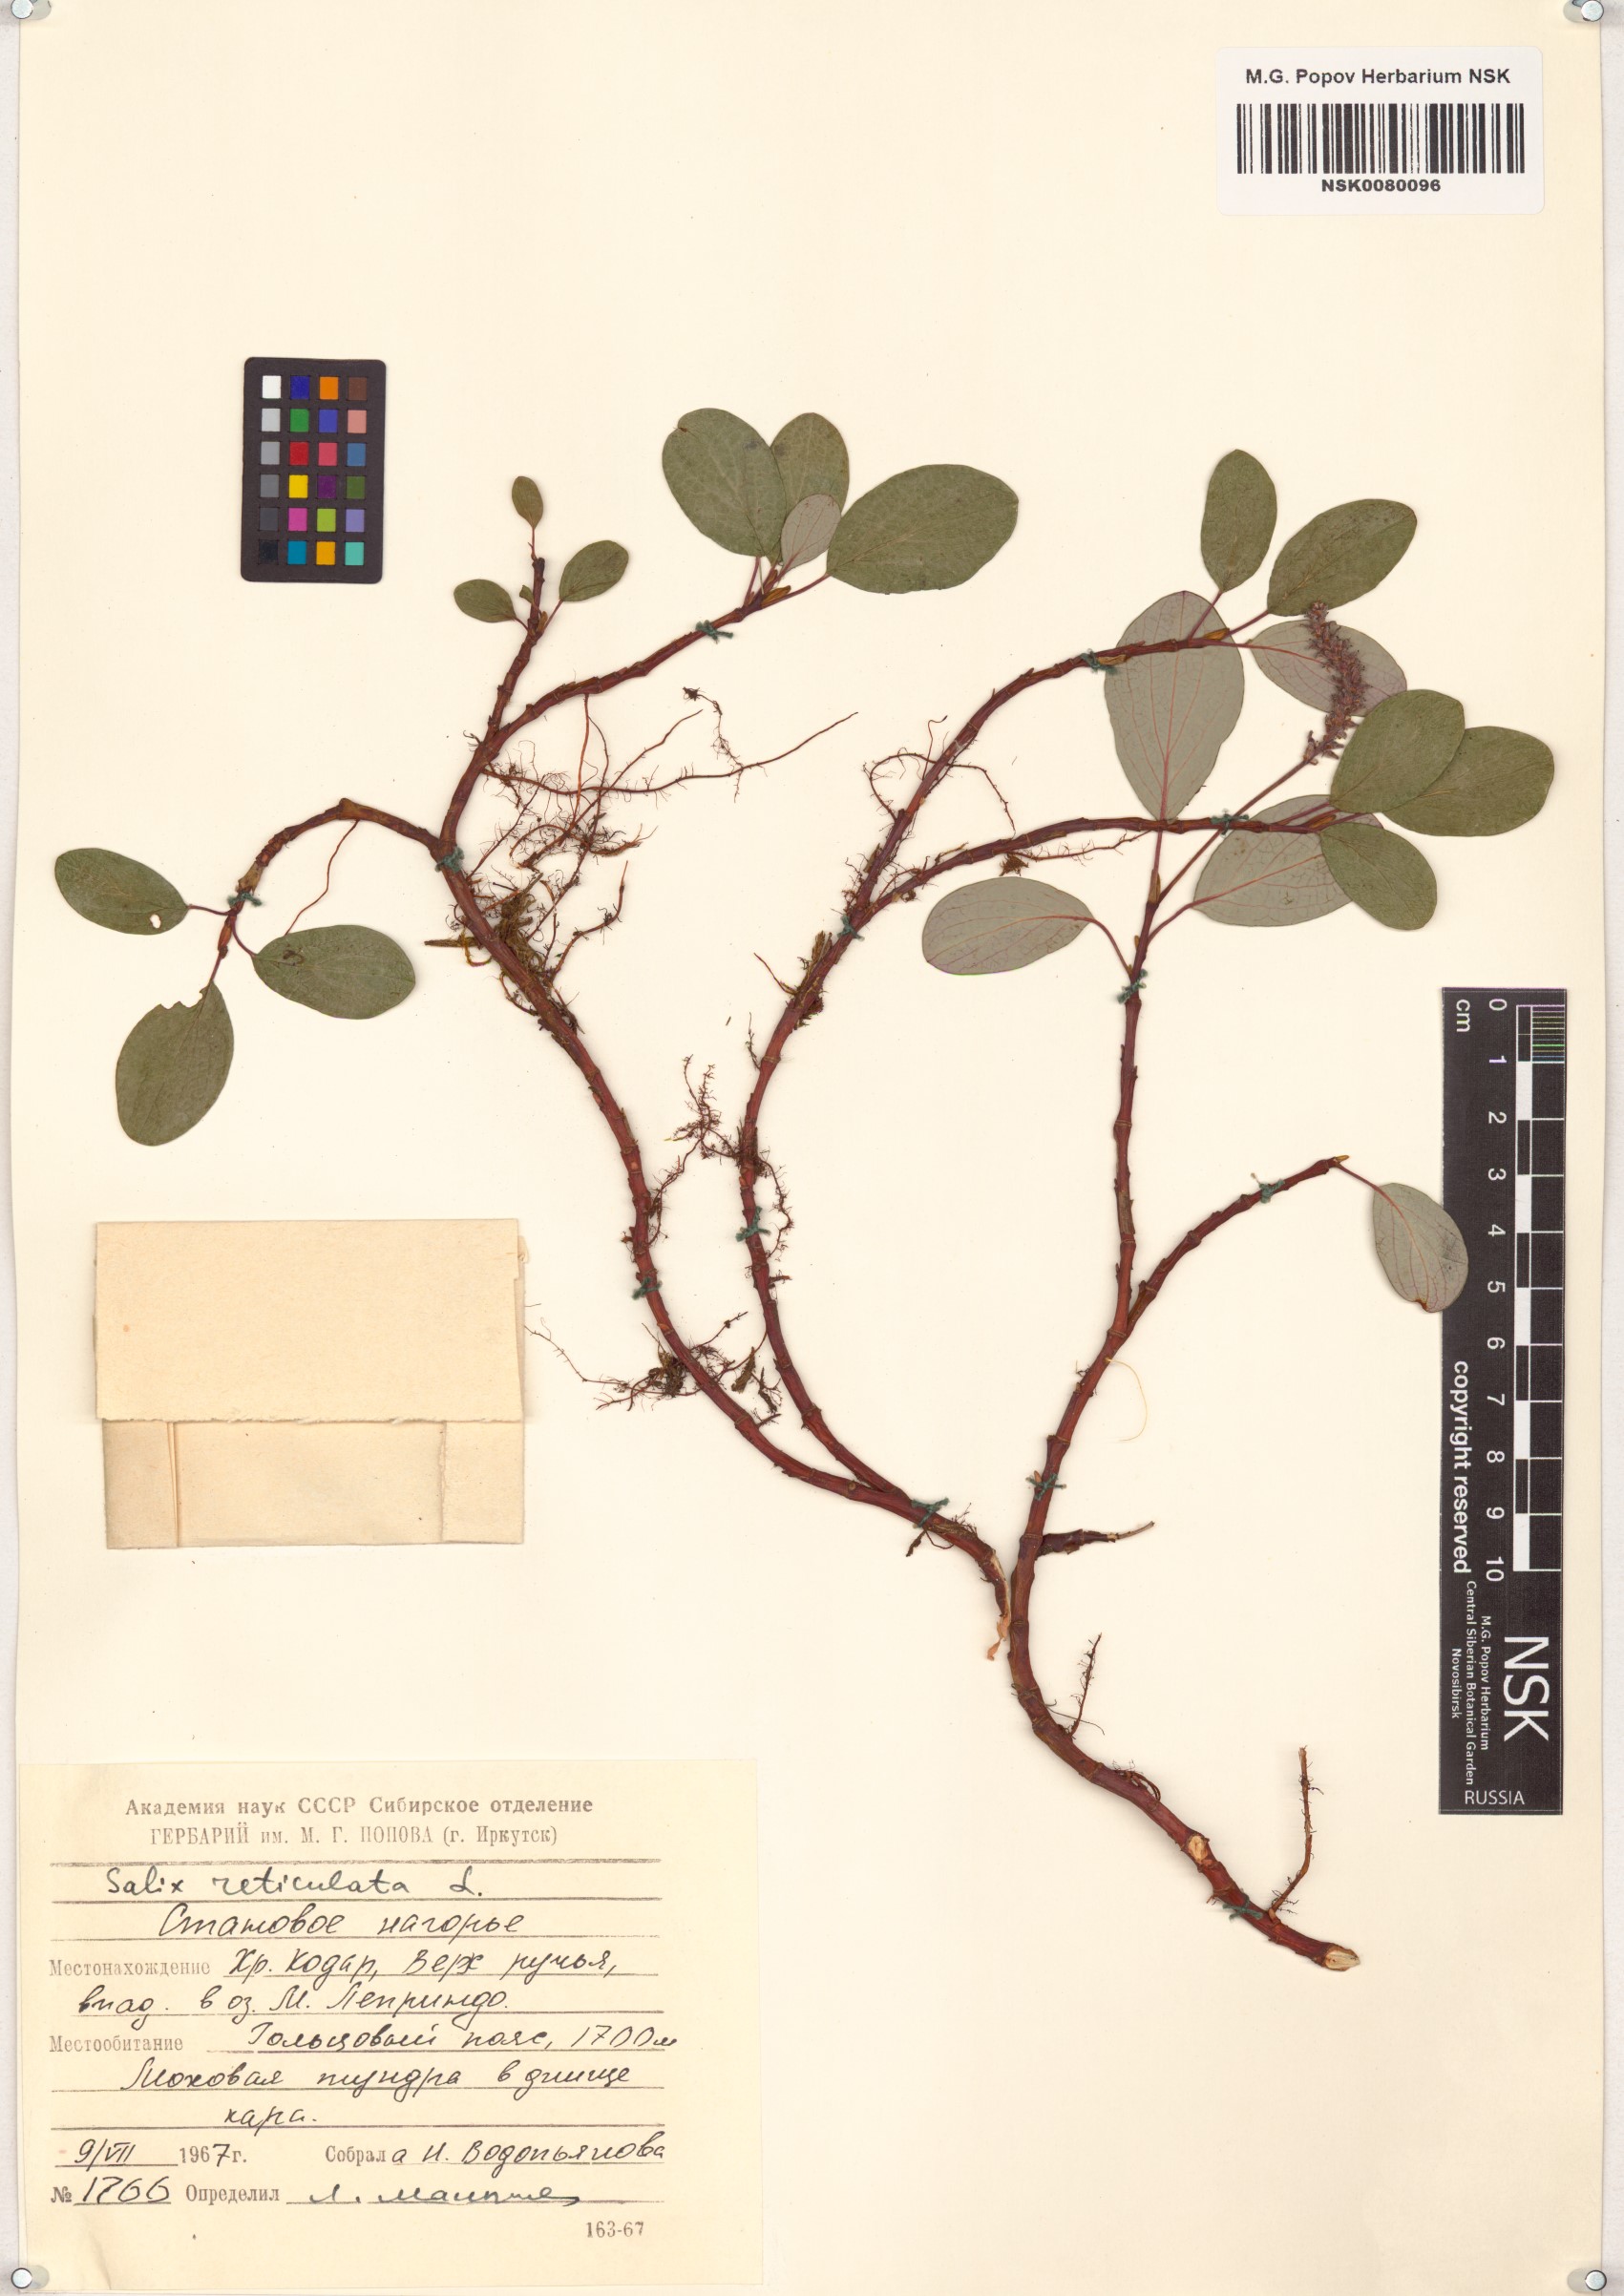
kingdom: Plantae
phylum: Tracheophyta
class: Magnoliopsida
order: Malpighiales
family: Salicaceae
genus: Salix
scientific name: Salix reticulata
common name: Net-leaved willow
